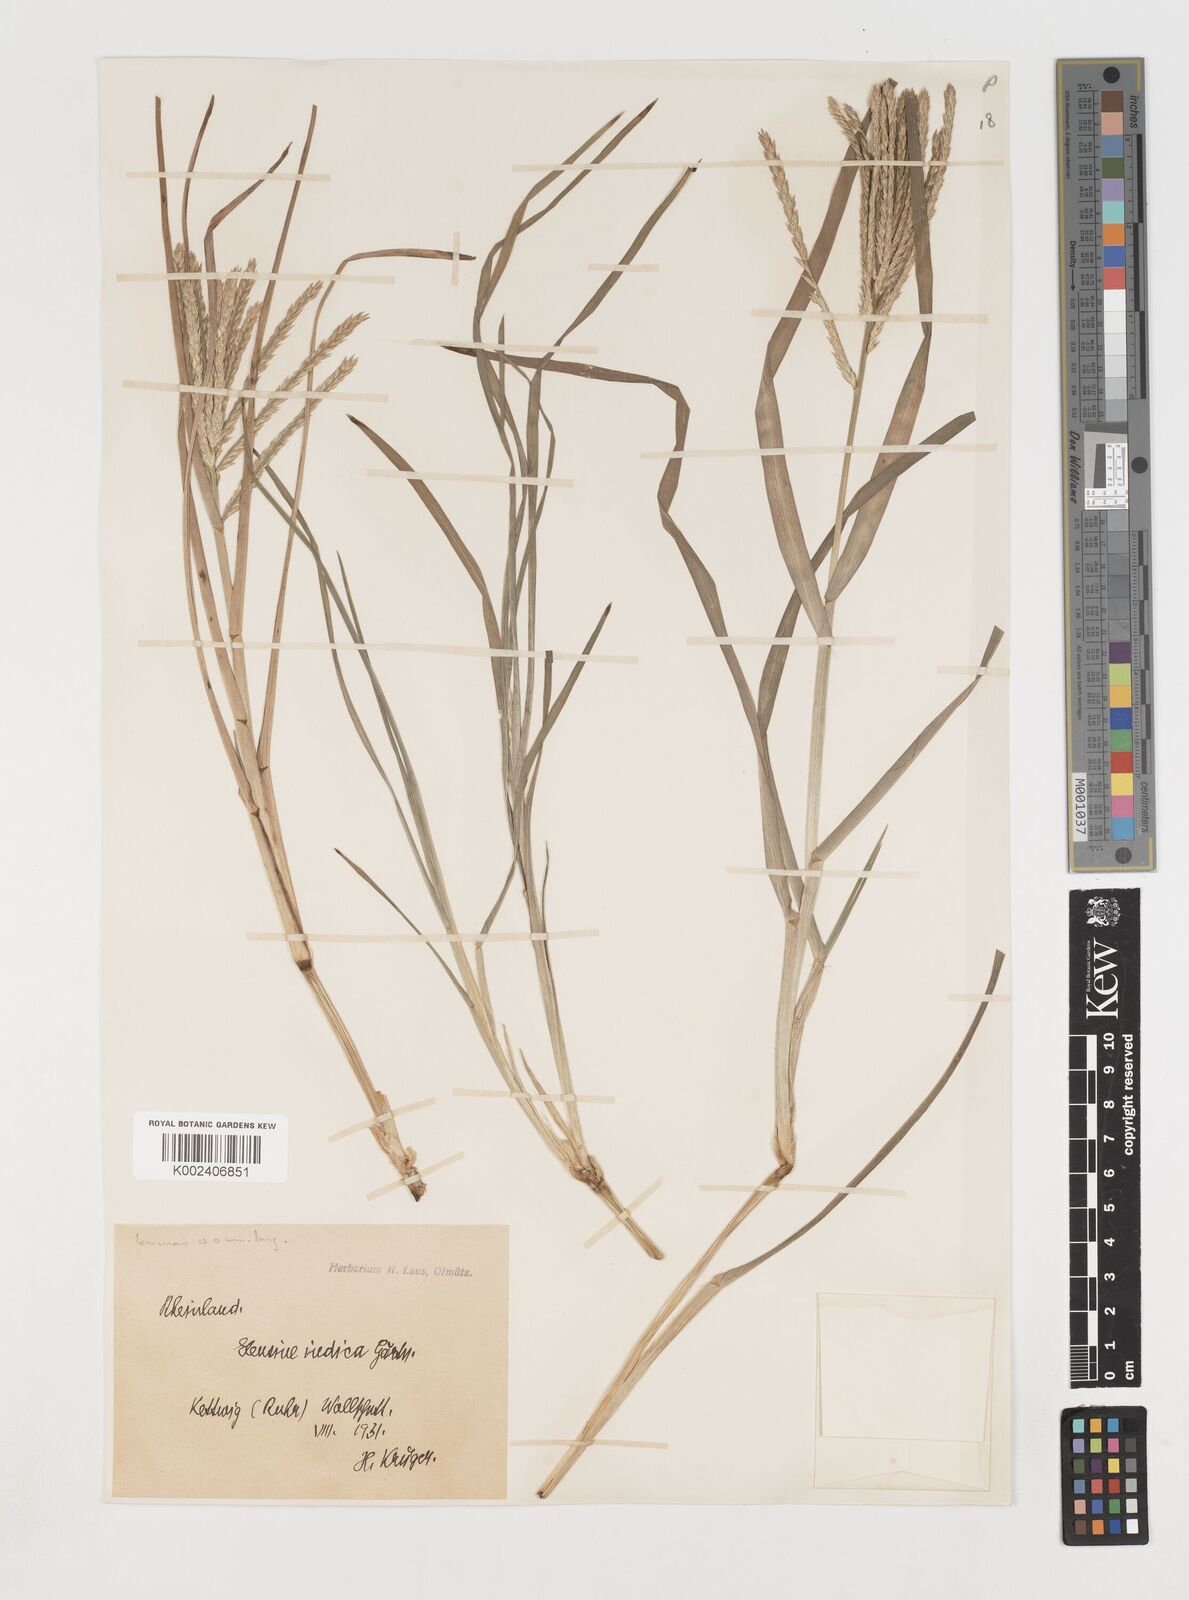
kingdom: Plantae
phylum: Tracheophyta
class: Liliopsida
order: Poales
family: Poaceae
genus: Eleusine
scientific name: Eleusine africana
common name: Wild african finger millet
